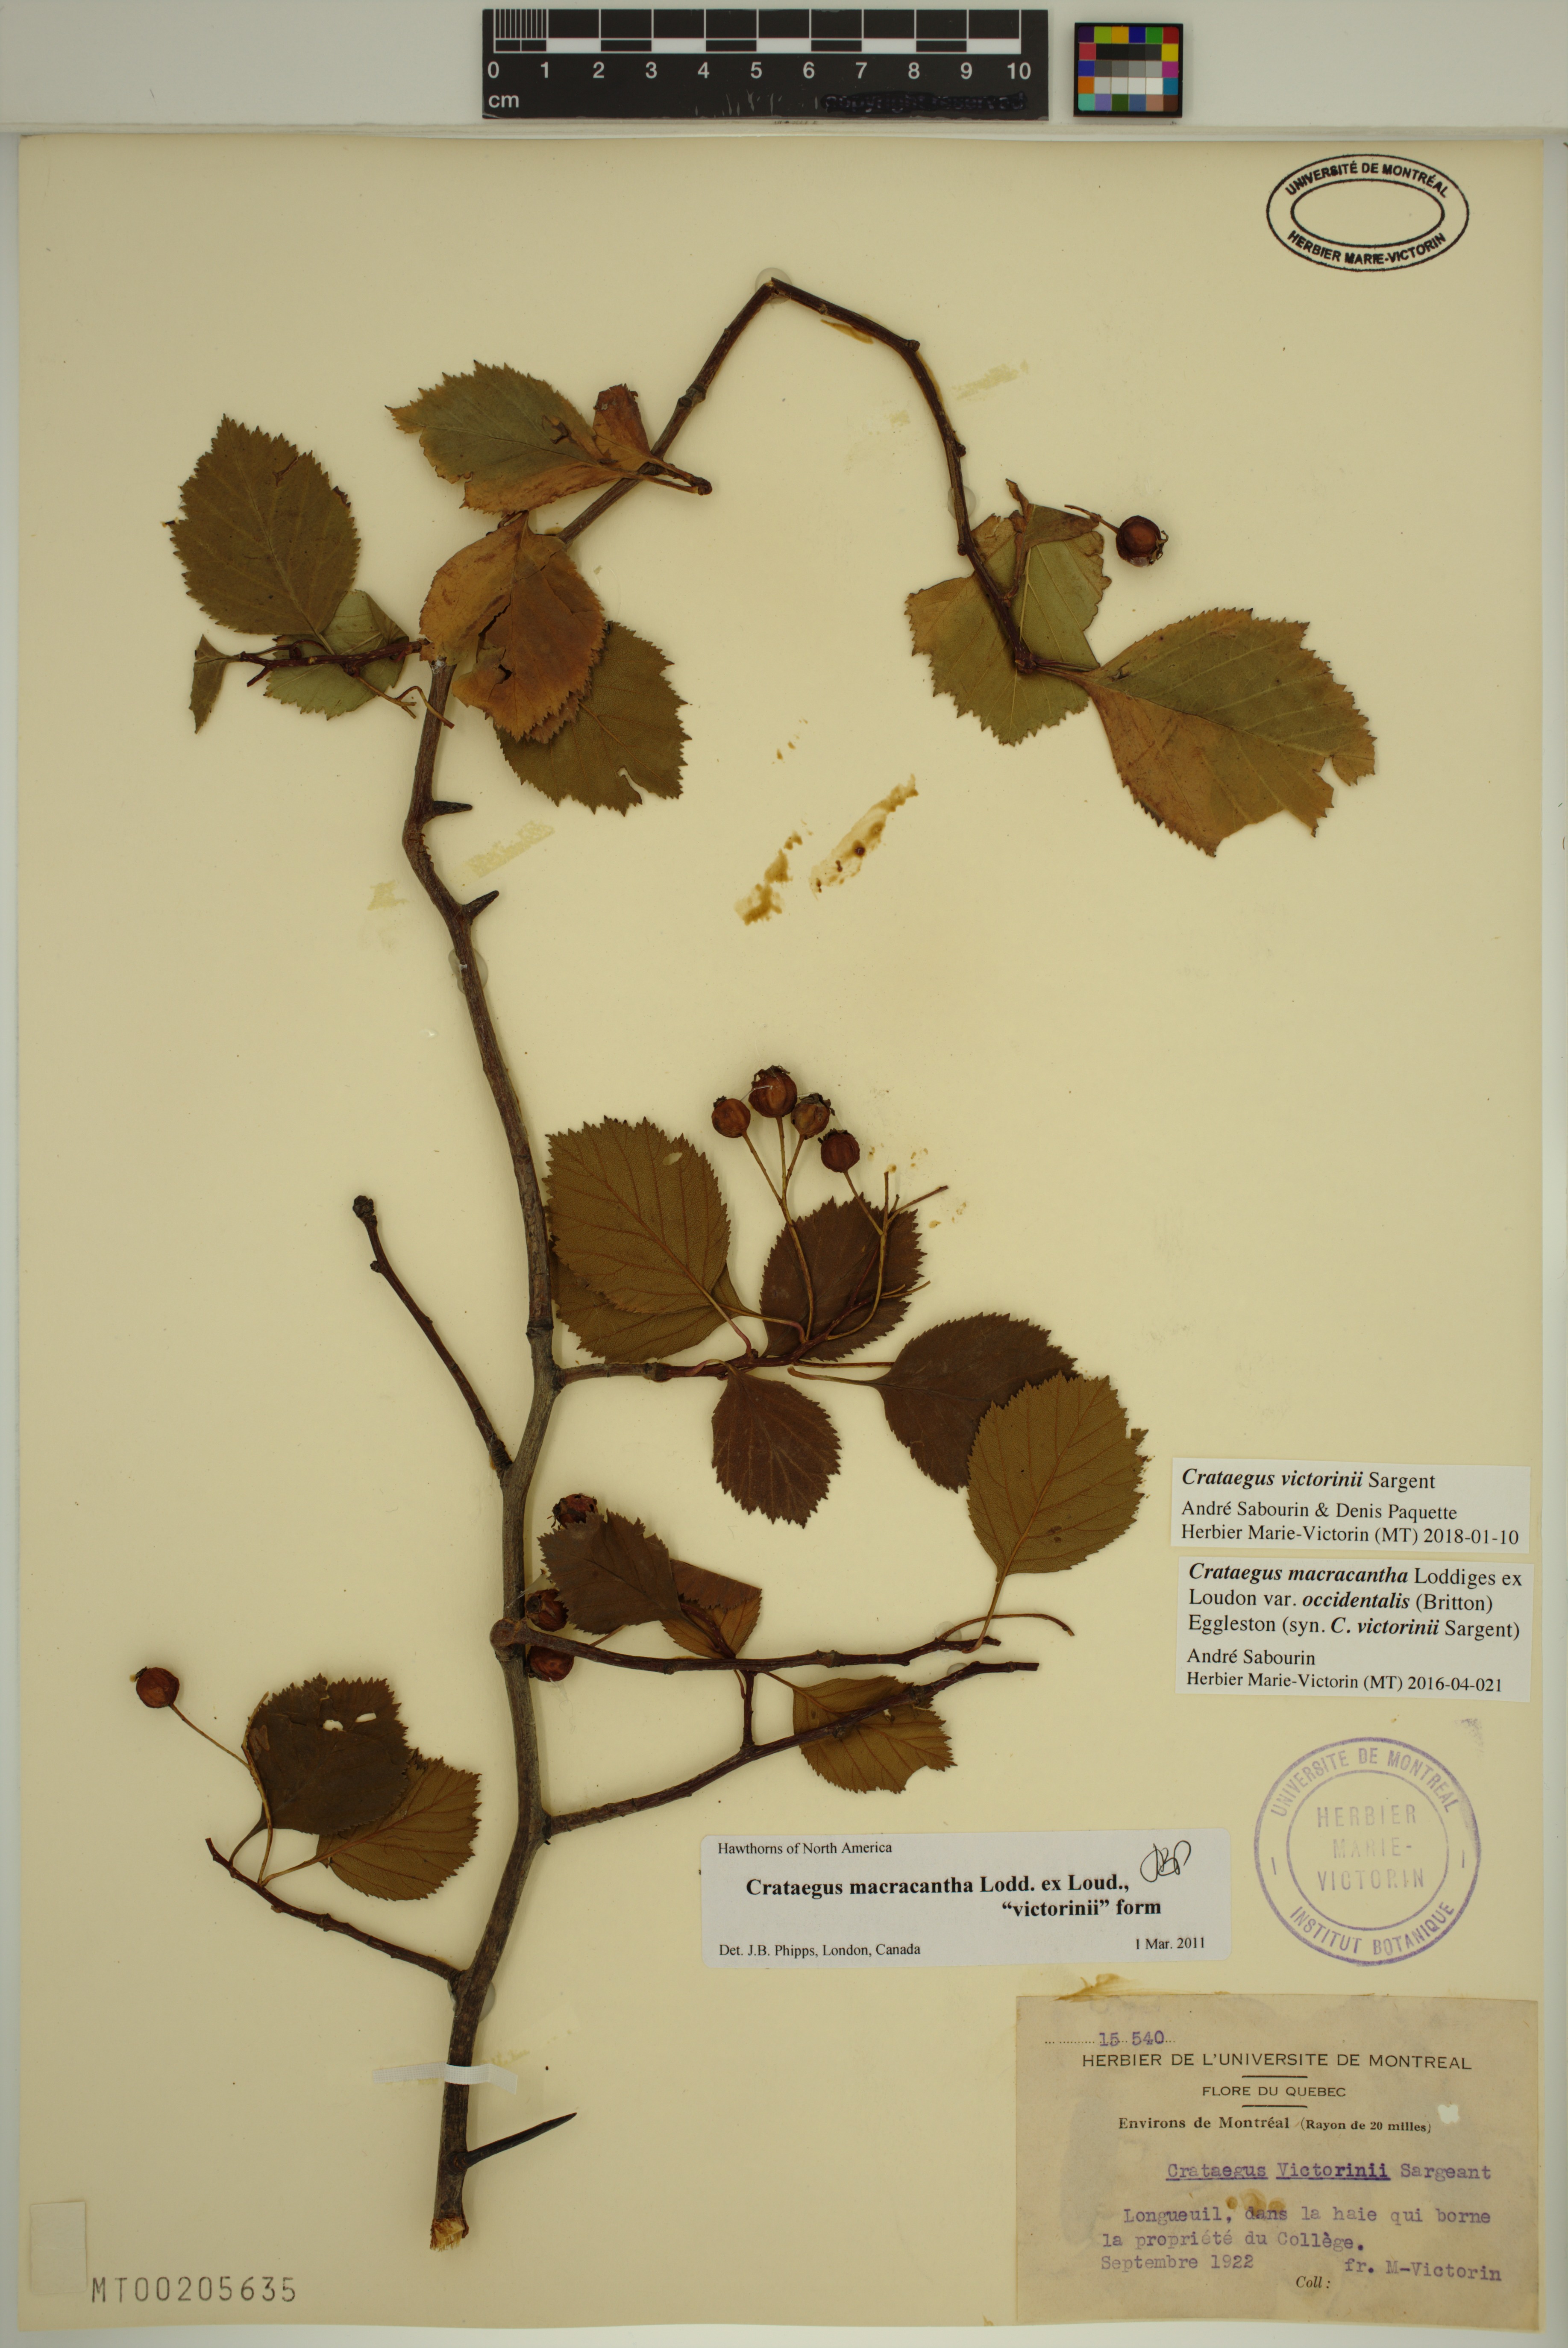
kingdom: Plantae
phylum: Tracheophyta
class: Magnoliopsida
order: Rosales
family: Rosaceae
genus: Crataegus
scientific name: Crataegus macracantha
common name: Large-thorn hawthorn
